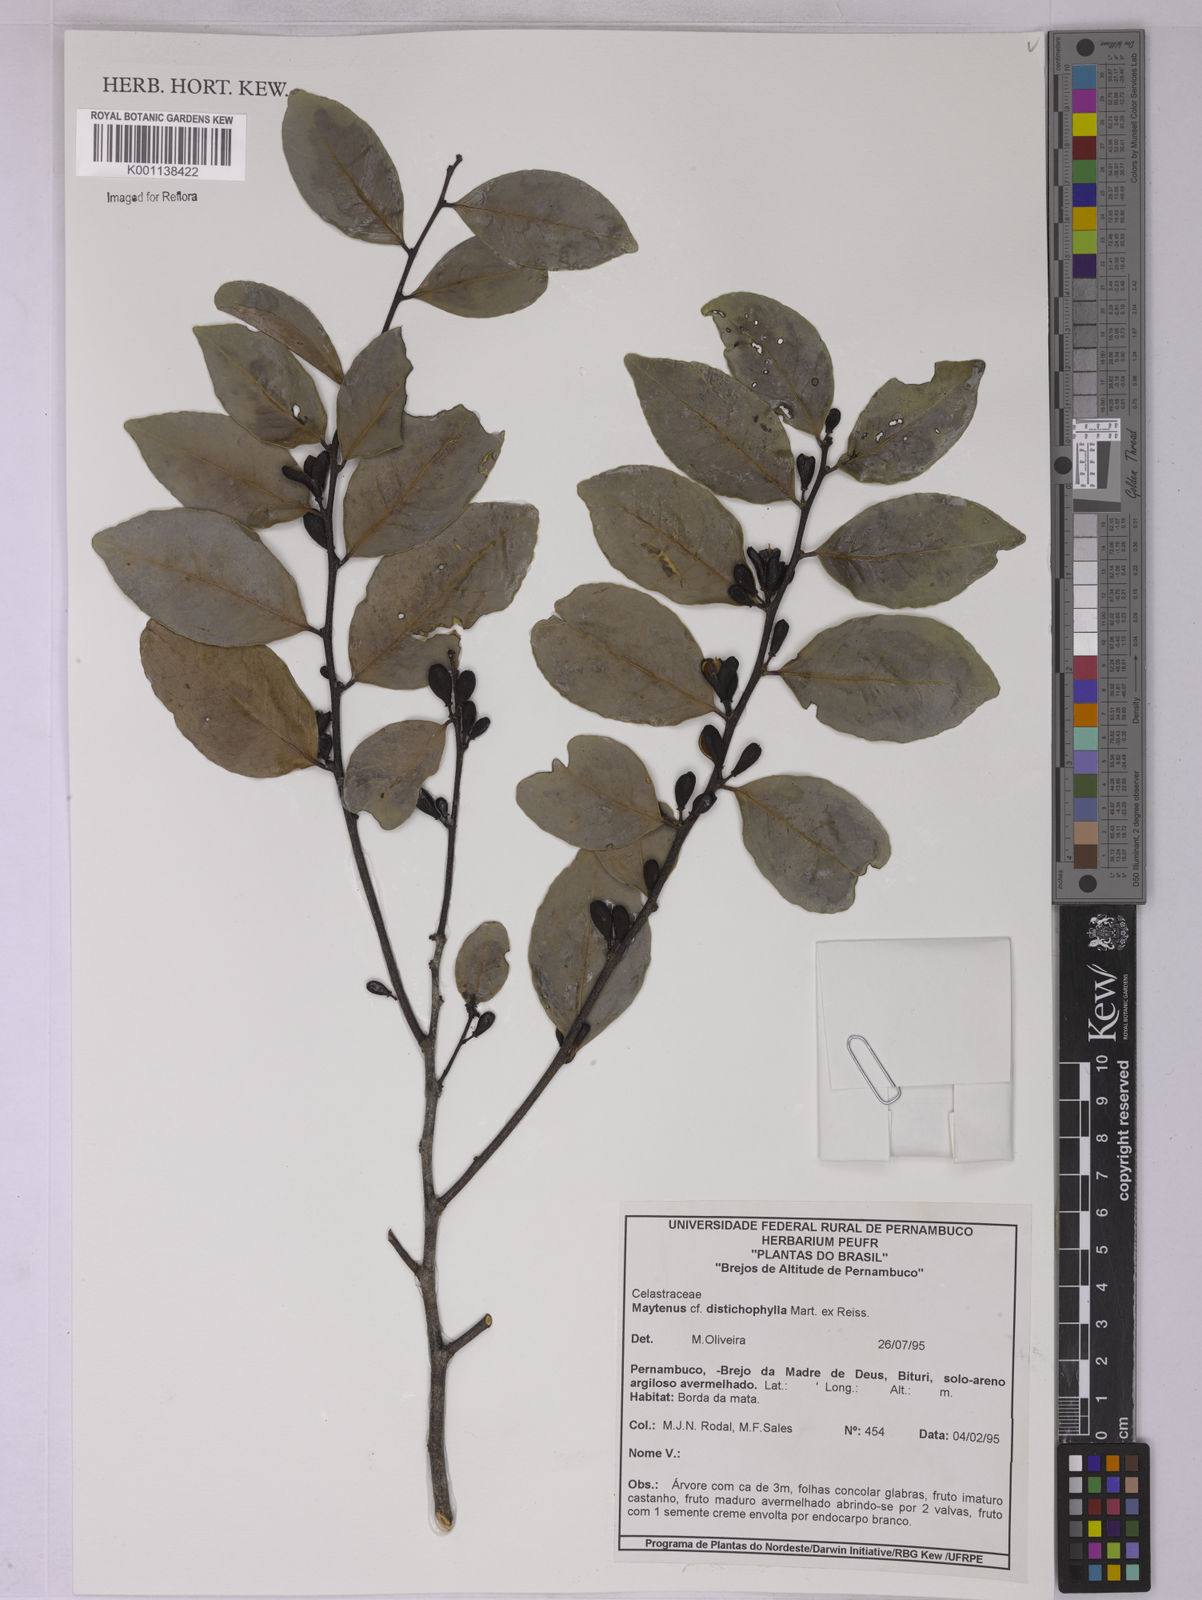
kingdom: Plantae
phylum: Tracheophyta
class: Magnoliopsida
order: Celastrales
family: Celastraceae
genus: Monteverdia
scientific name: Monteverdia distichophylla
